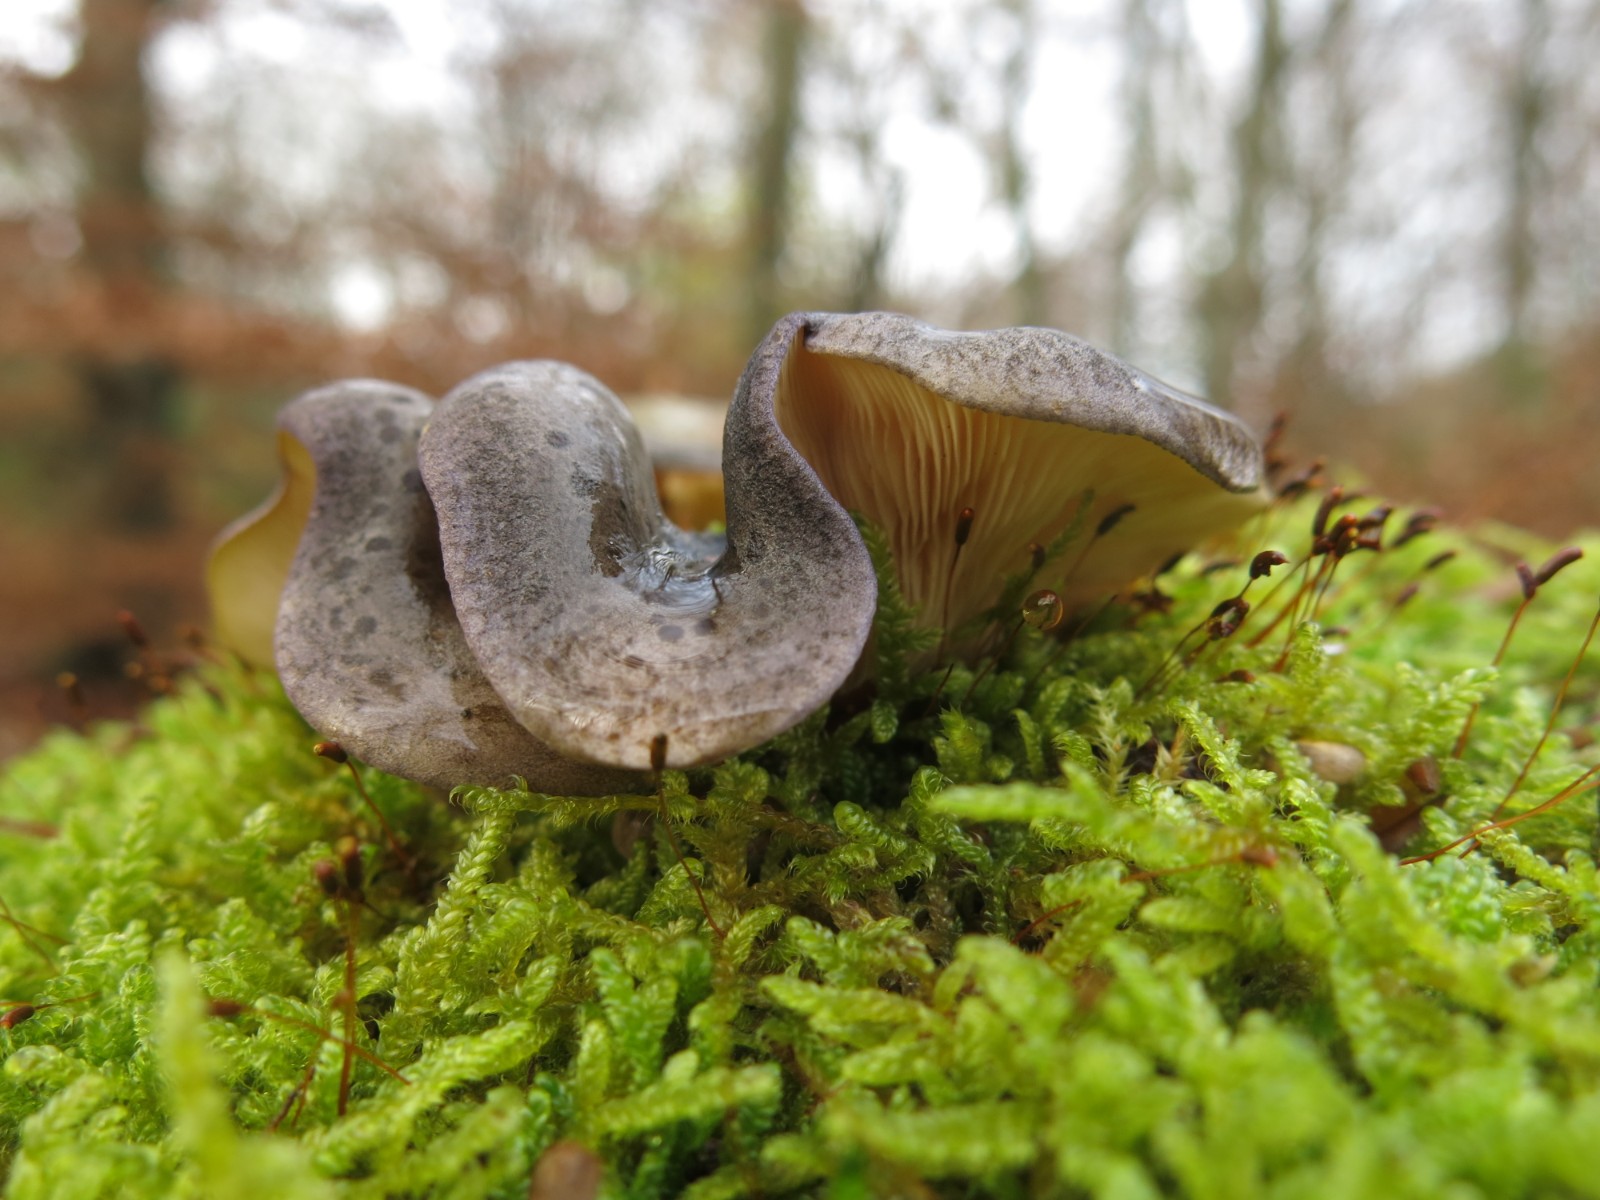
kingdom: Fungi
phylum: Basidiomycota
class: Agaricomycetes
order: Agaricales
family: Sarcomyxaceae
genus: Sarcomyxa
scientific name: Sarcomyxa serotina
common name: gummihat
